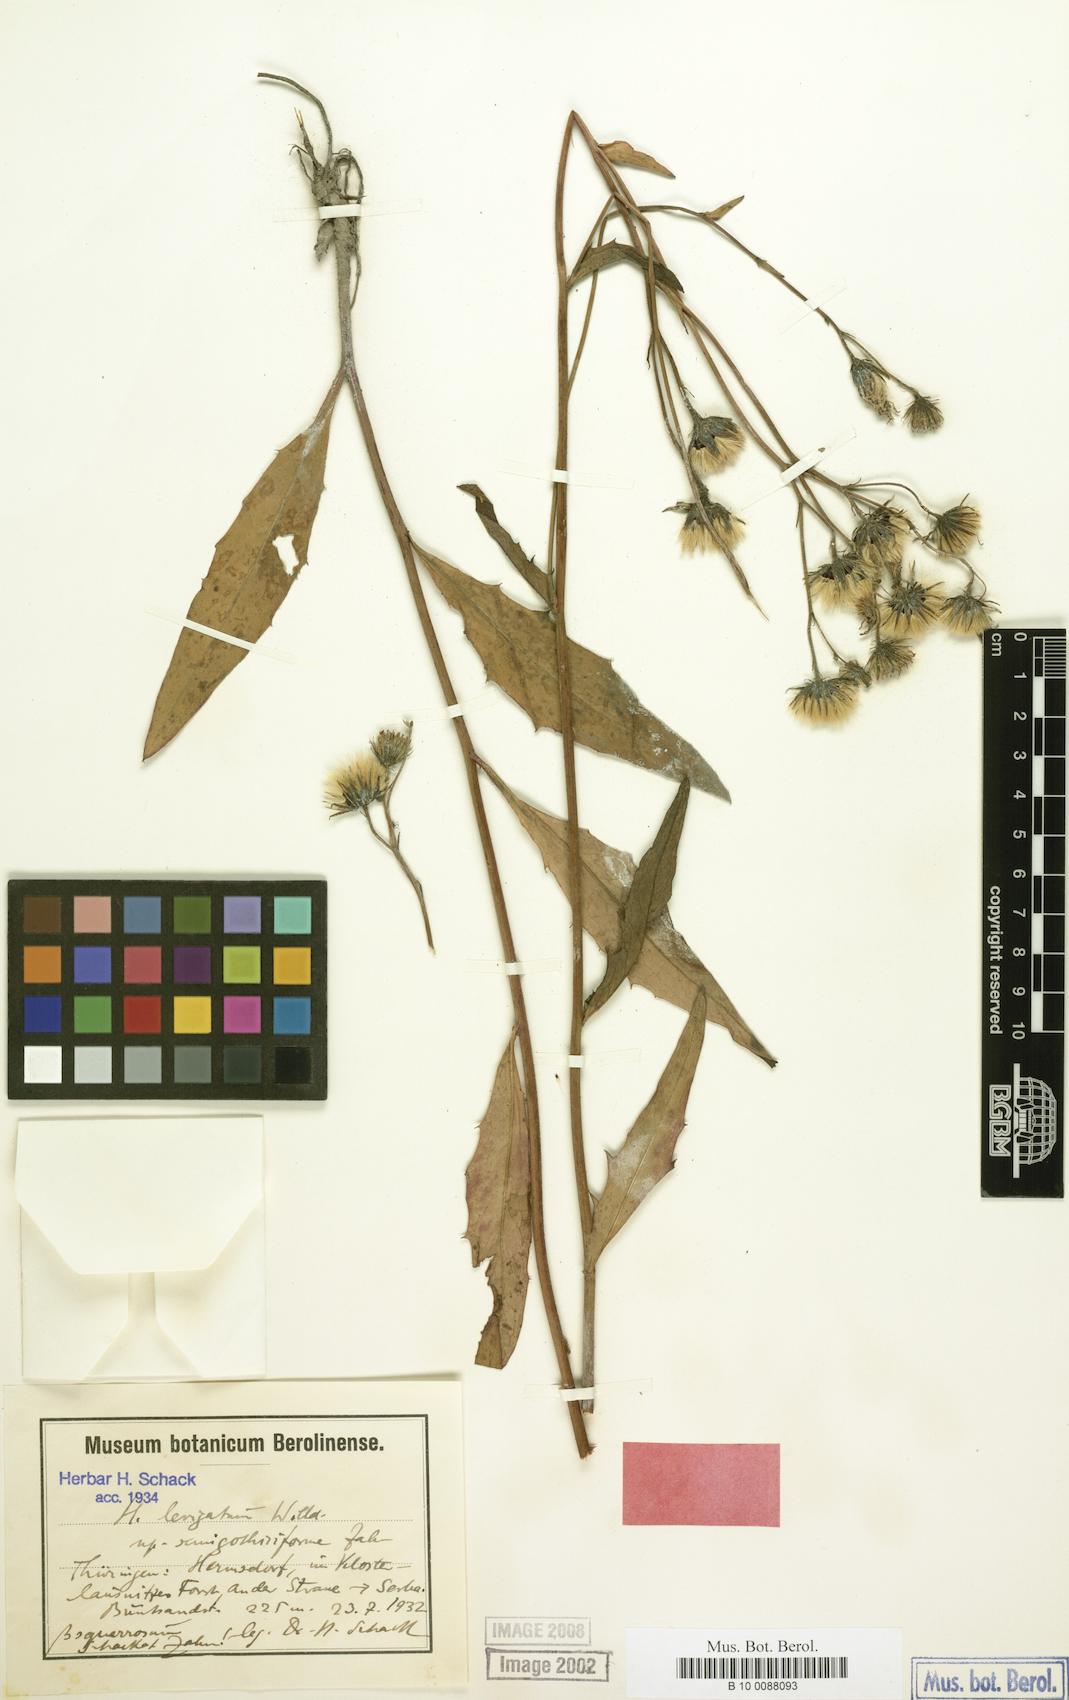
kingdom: Plantae
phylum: Tracheophyta
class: Magnoliopsida
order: Asterales
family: Asteraceae
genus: Hieracium
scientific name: Hieracium laevigatum
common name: Smooth hawkweed
